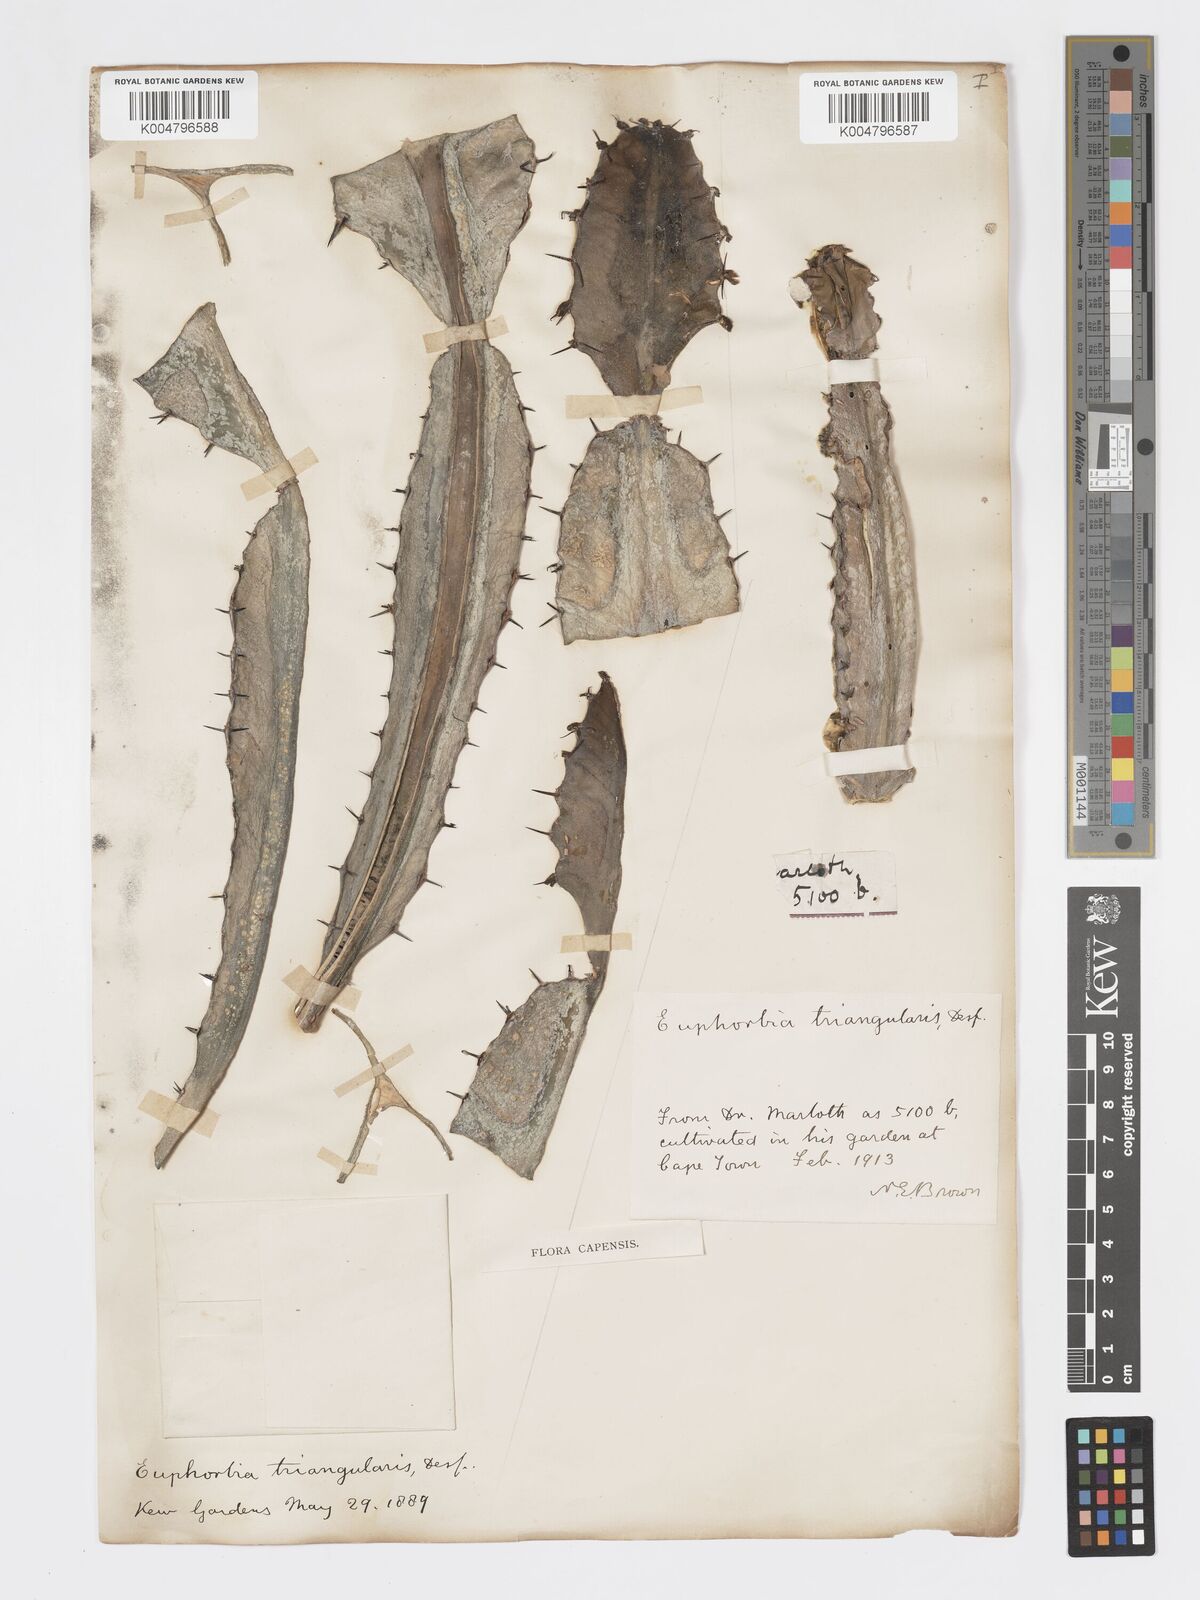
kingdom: Plantae
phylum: Tracheophyta
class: Magnoliopsida
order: Malpighiales
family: Euphorbiaceae
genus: Euphorbia
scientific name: Euphorbia triangularis
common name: Chandelier tree
